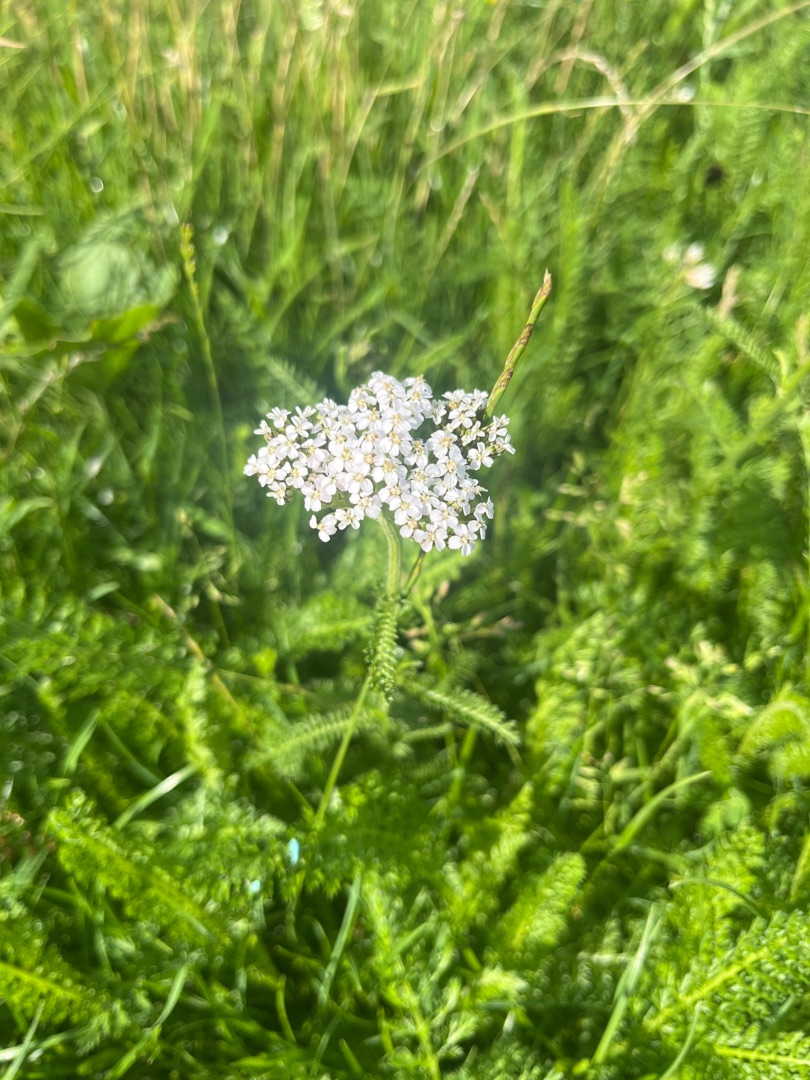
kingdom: Plantae
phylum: Tracheophyta
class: Magnoliopsida
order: Asterales
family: Asteraceae
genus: Achillea
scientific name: Achillea millefolium
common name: Almindelig røllike
